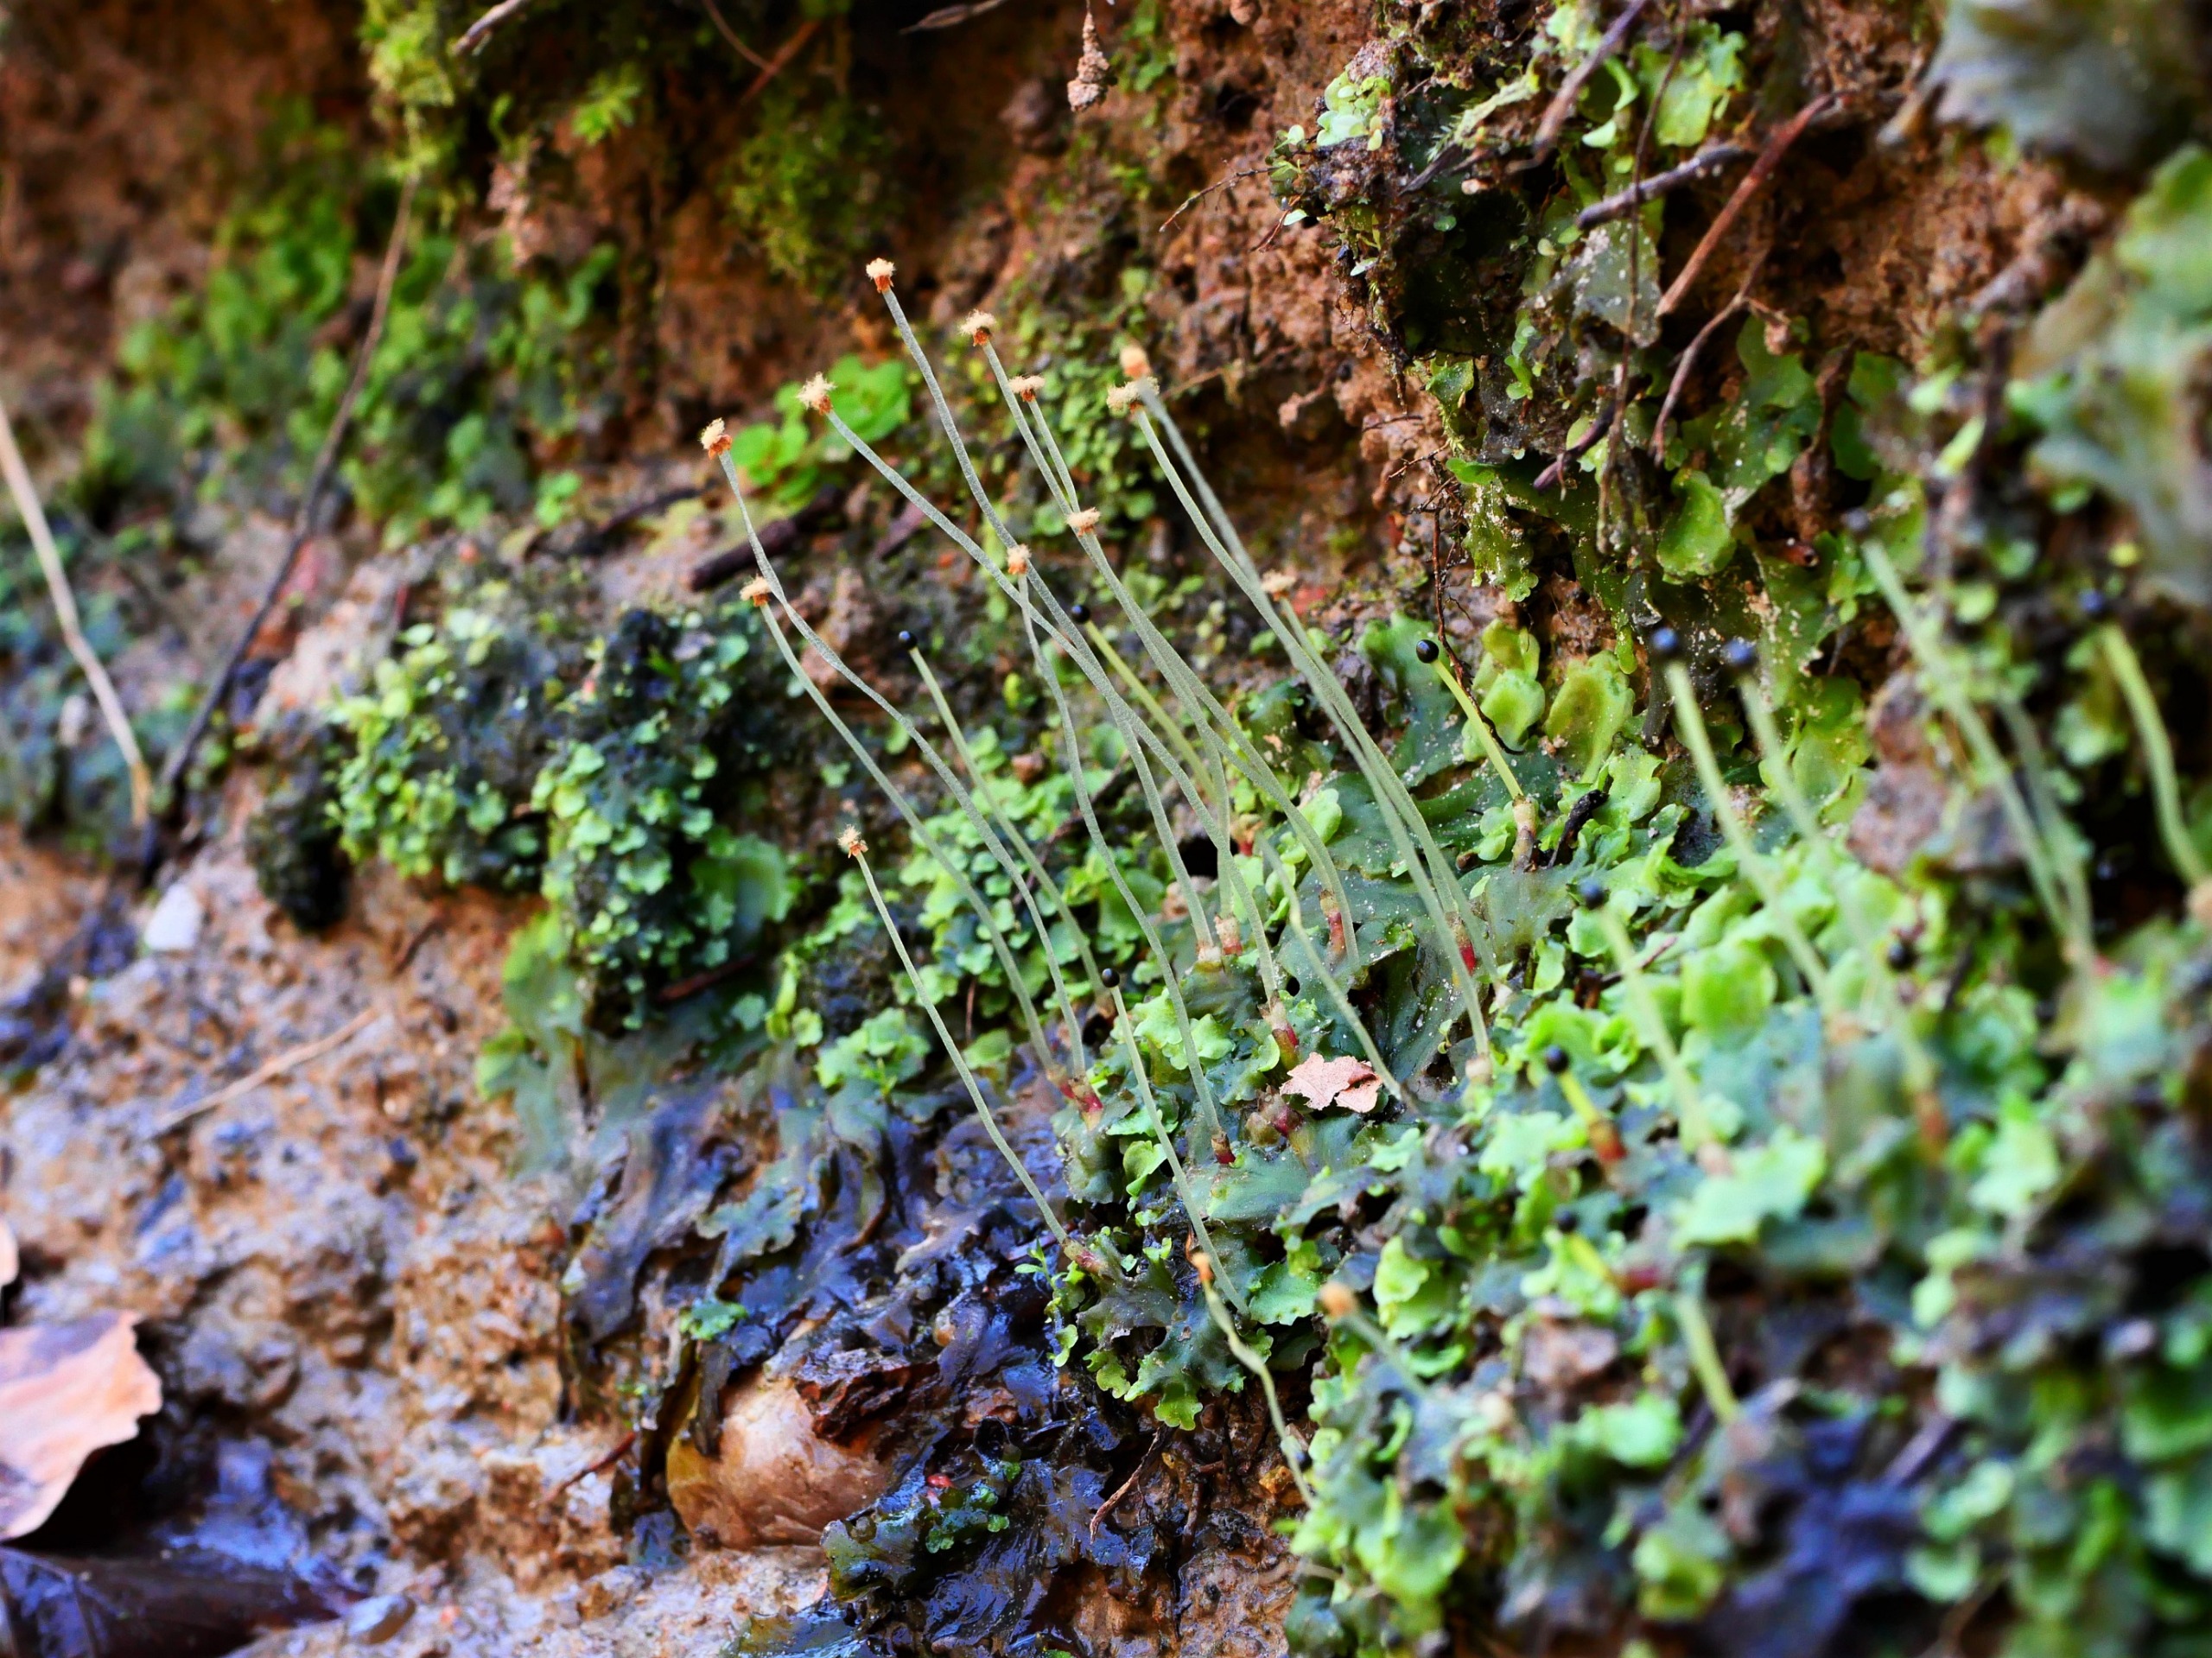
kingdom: Plantae
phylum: Marchantiophyta
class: Jungermanniopsida
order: Pelliales
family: Pelliaceae
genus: Pellia
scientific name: Pellia epiphylla
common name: Enbo ribbeløv
